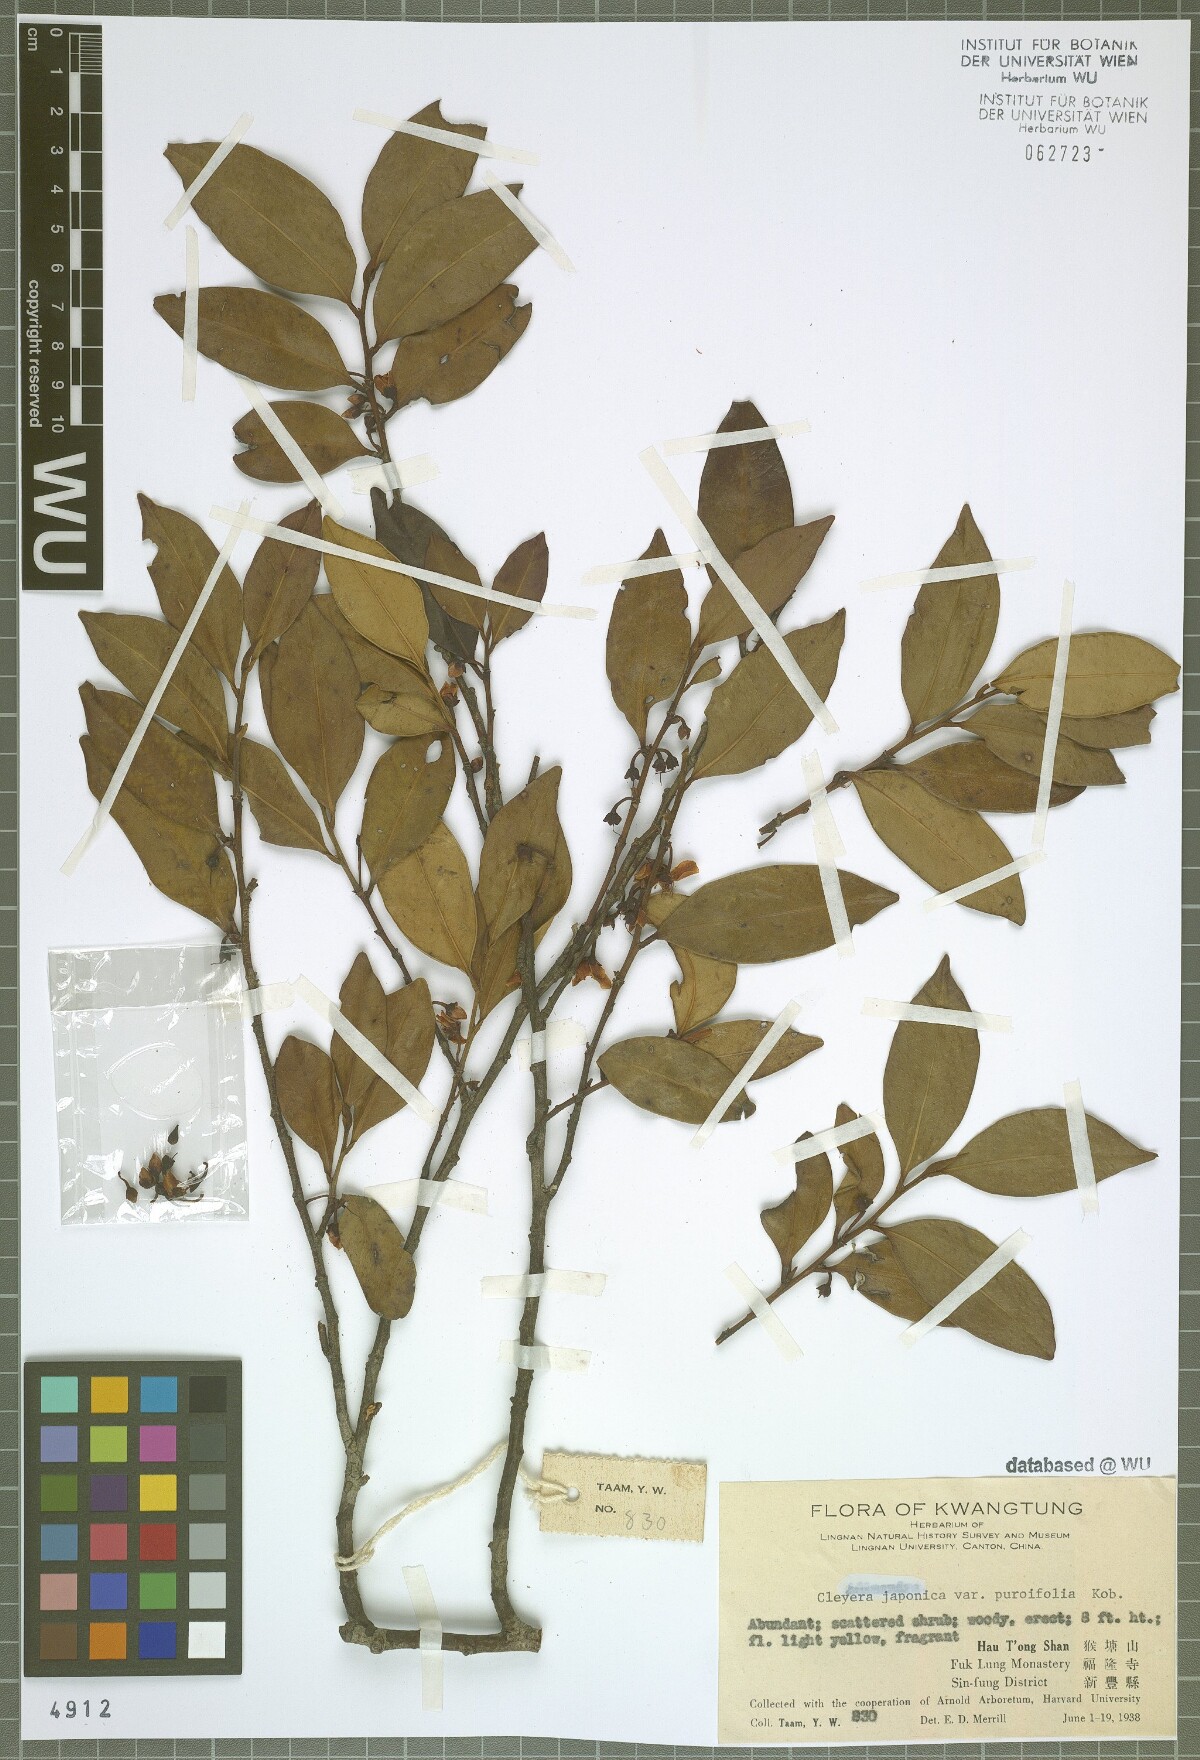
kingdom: Plantae
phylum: Tracheophyta
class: Magnoliopsida
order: Ericales
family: Pentaphylacaceae
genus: Cleyera
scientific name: Cleyera parvifolia
